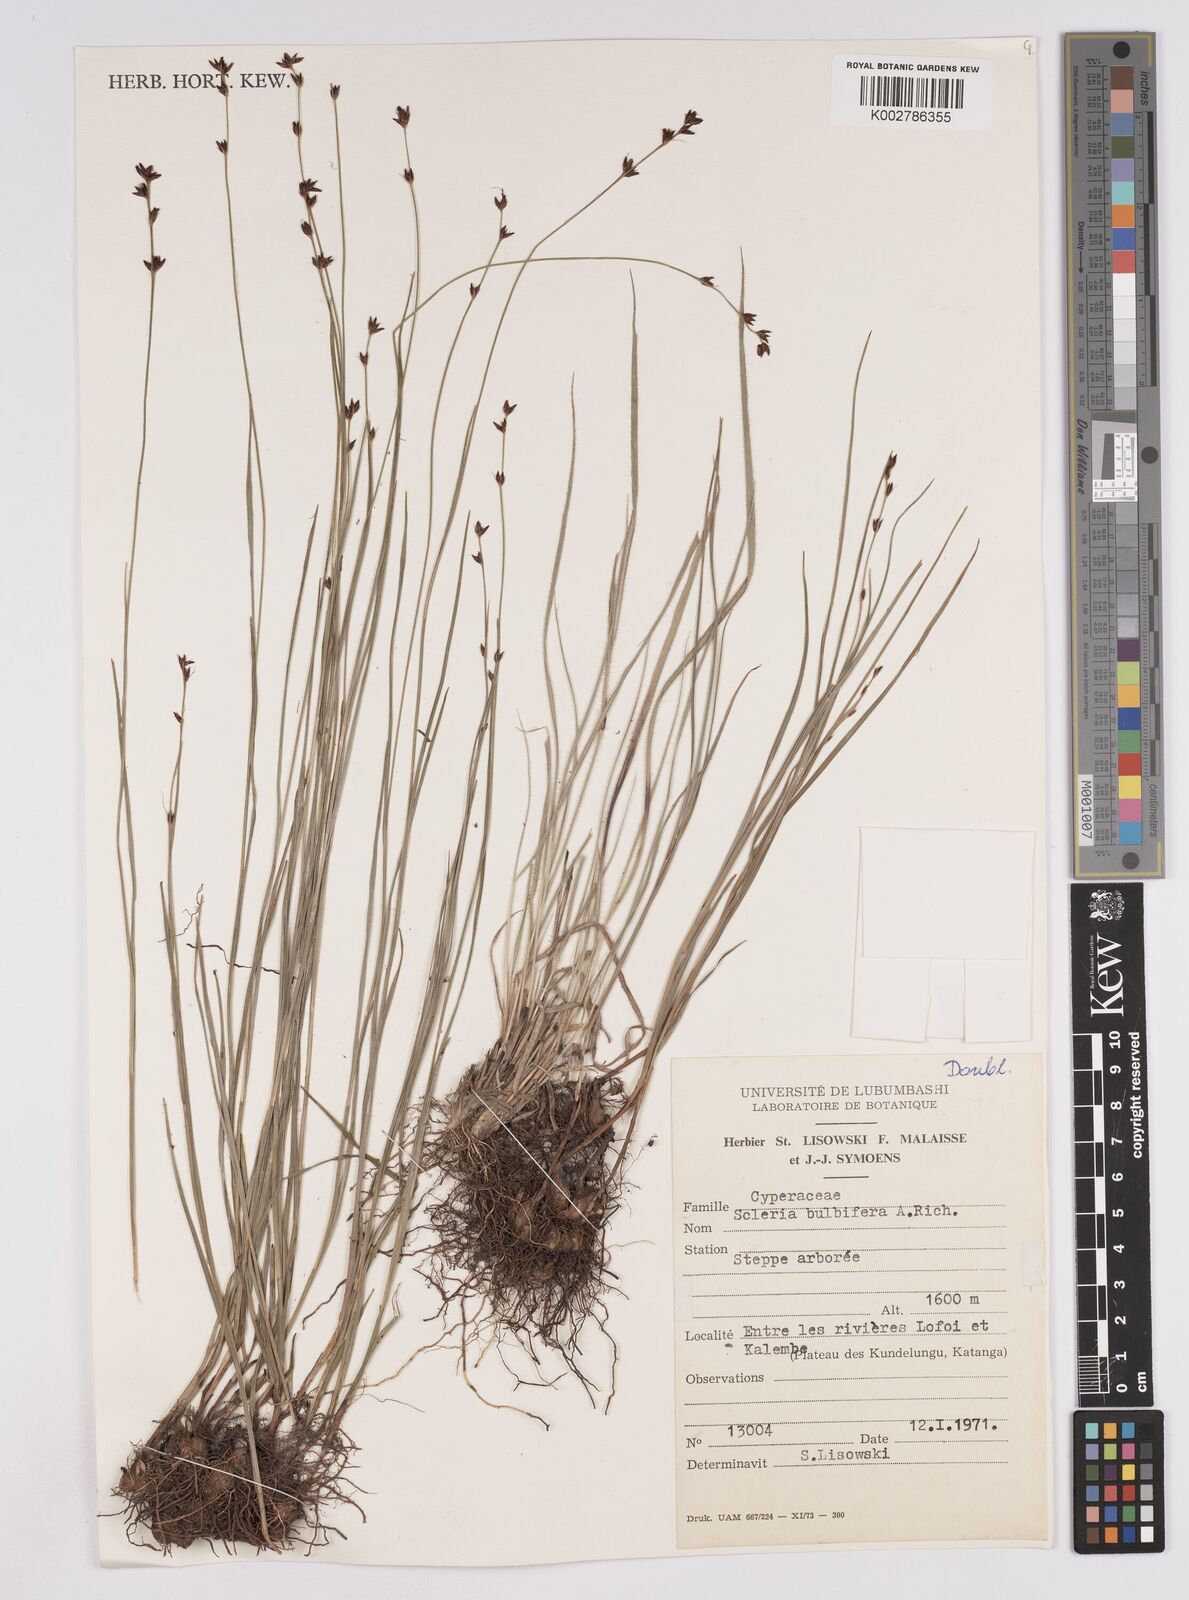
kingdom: Plantae
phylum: Tracheophyta
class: Liliopsida
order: Poales
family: Cyperaceae
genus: Scleria
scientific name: Scleria bulbifera
